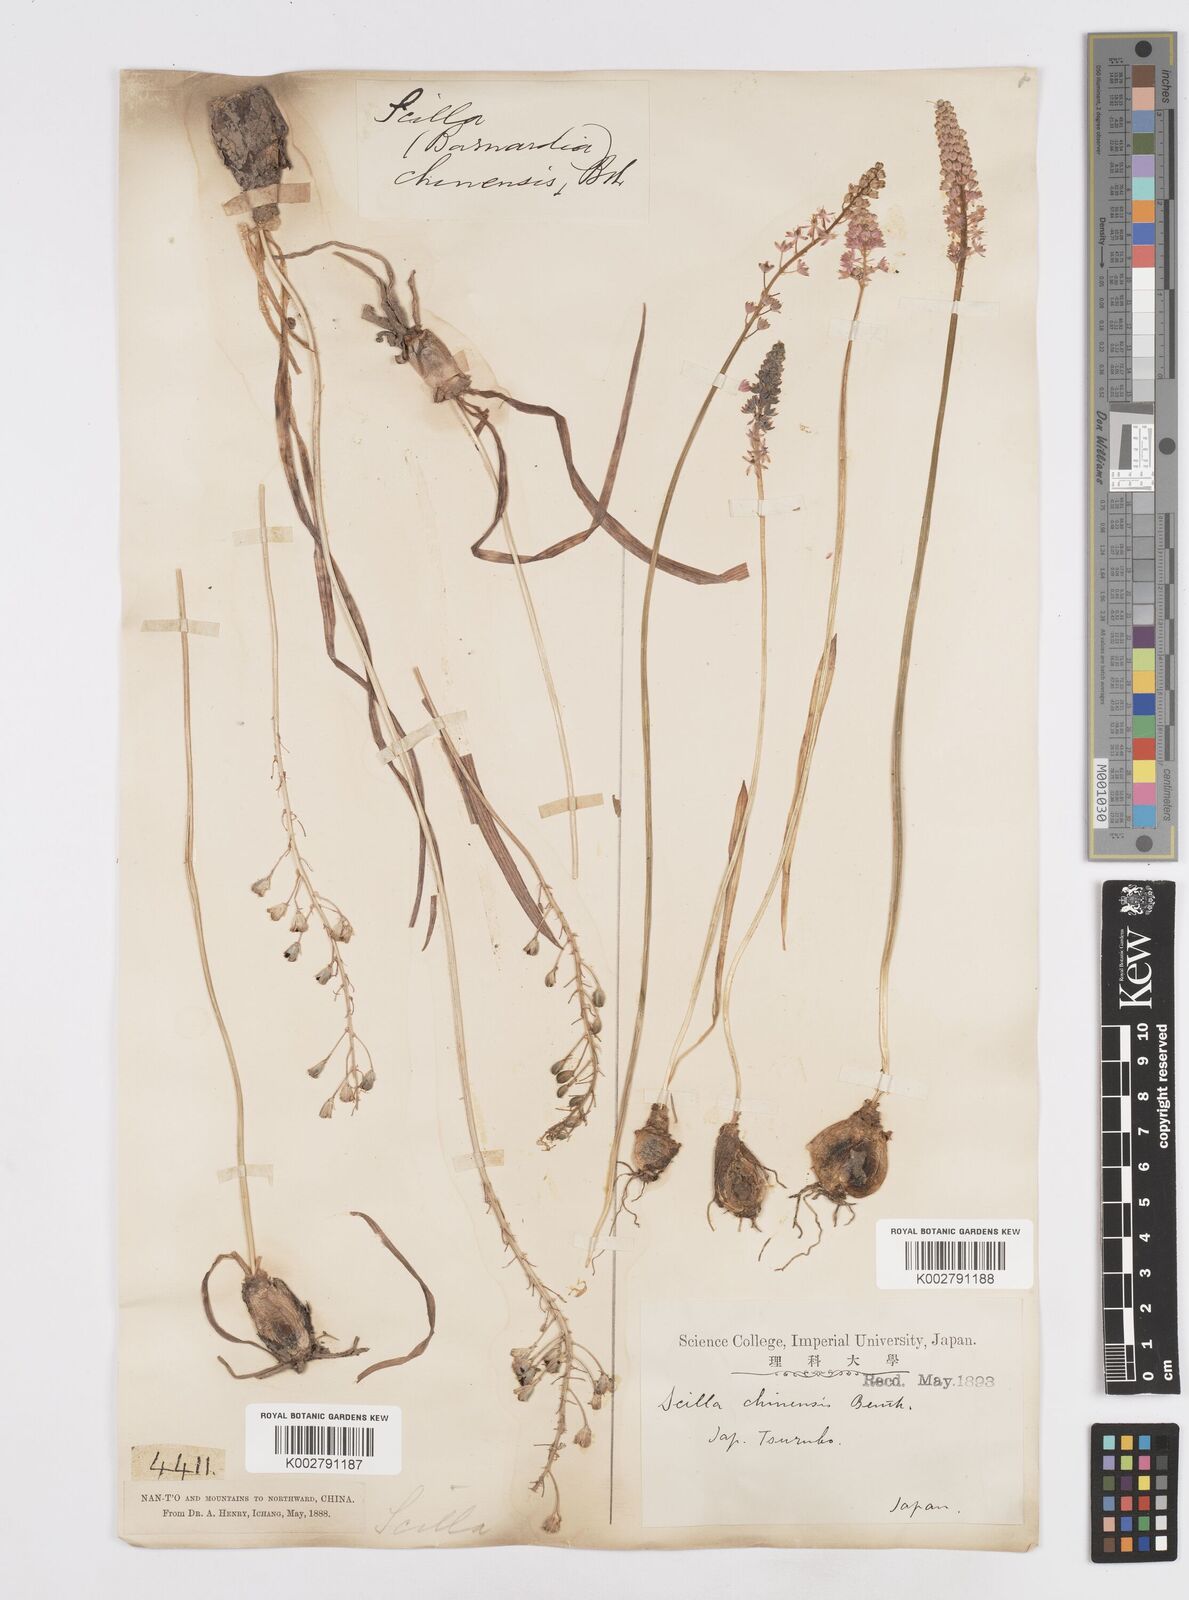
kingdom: Plantae
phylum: Tracheophyta
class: Liliopsida
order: Asparagales
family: Asparagaceae
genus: Barnardia
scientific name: Barnardia japonica
